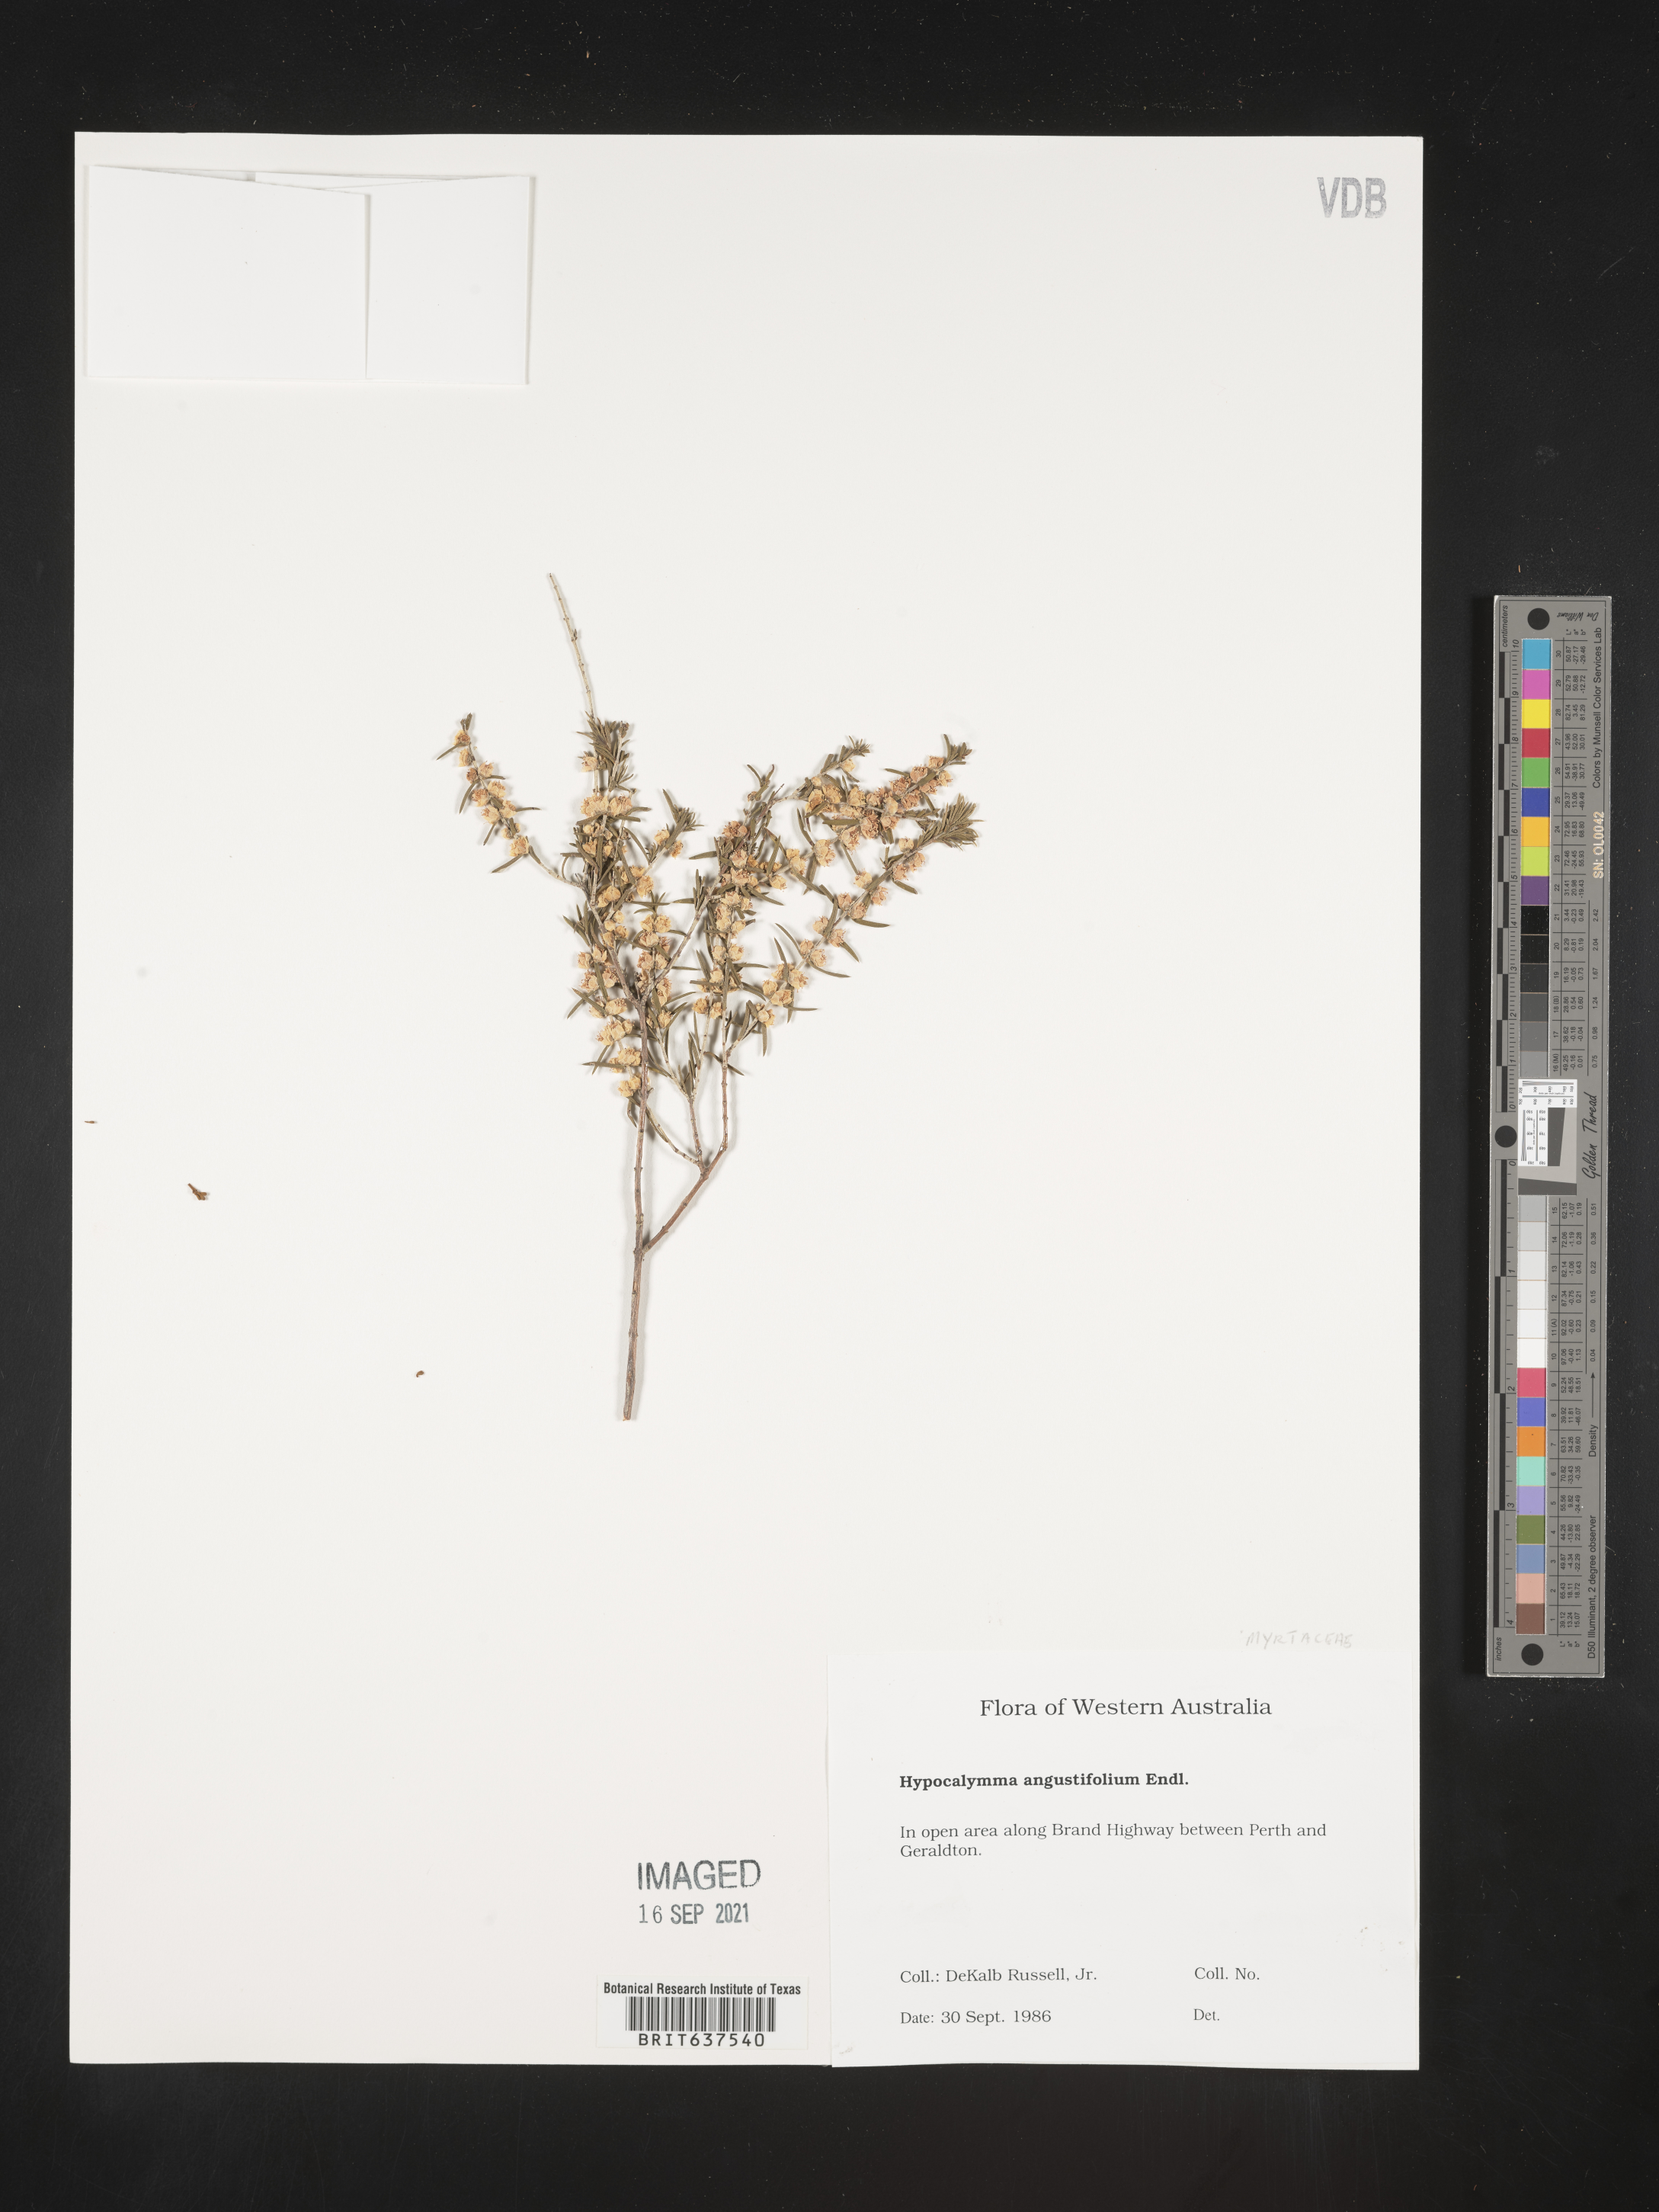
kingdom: Plantae
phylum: Tracheophyta
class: Magnoliopsida
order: Myrtales
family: Myrtaceae
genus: Hypocalymma
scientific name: Hypocalymma
